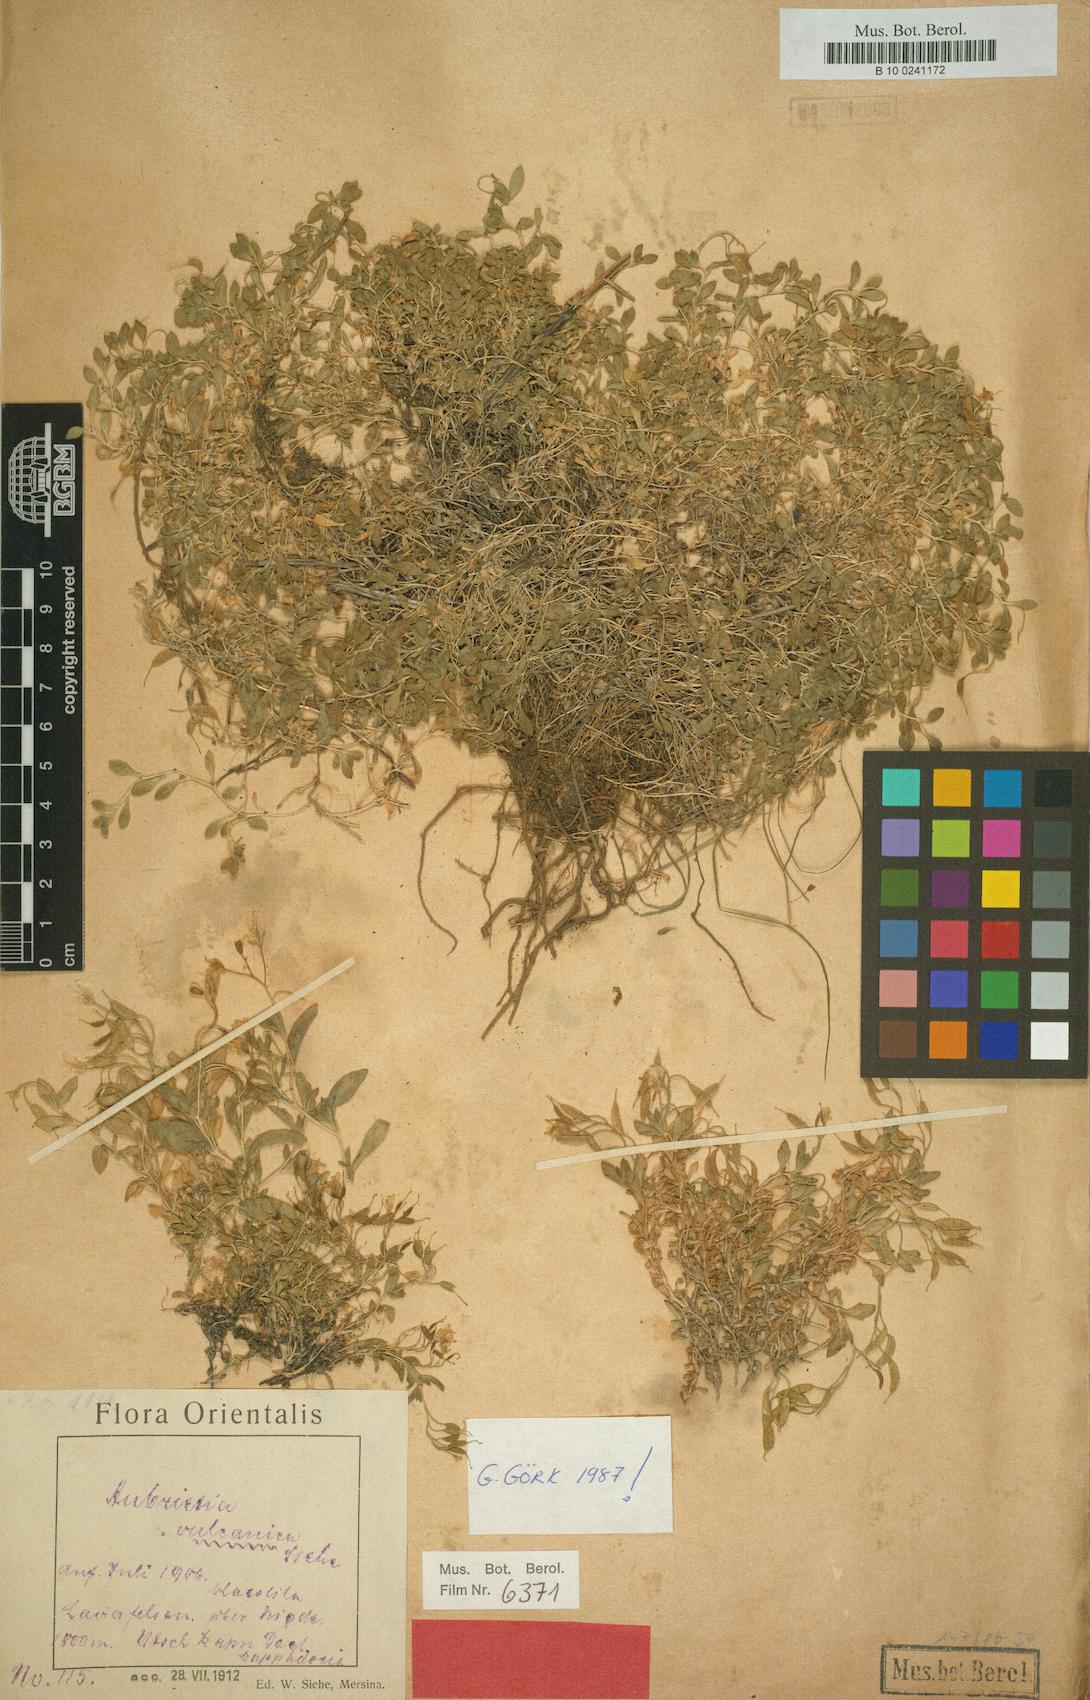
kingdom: Plantae
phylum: Tracheophyta
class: Magnoliopsida
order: Brassicales
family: Brassicaceae
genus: Aubrieta
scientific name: Aubrieta vulcanica
